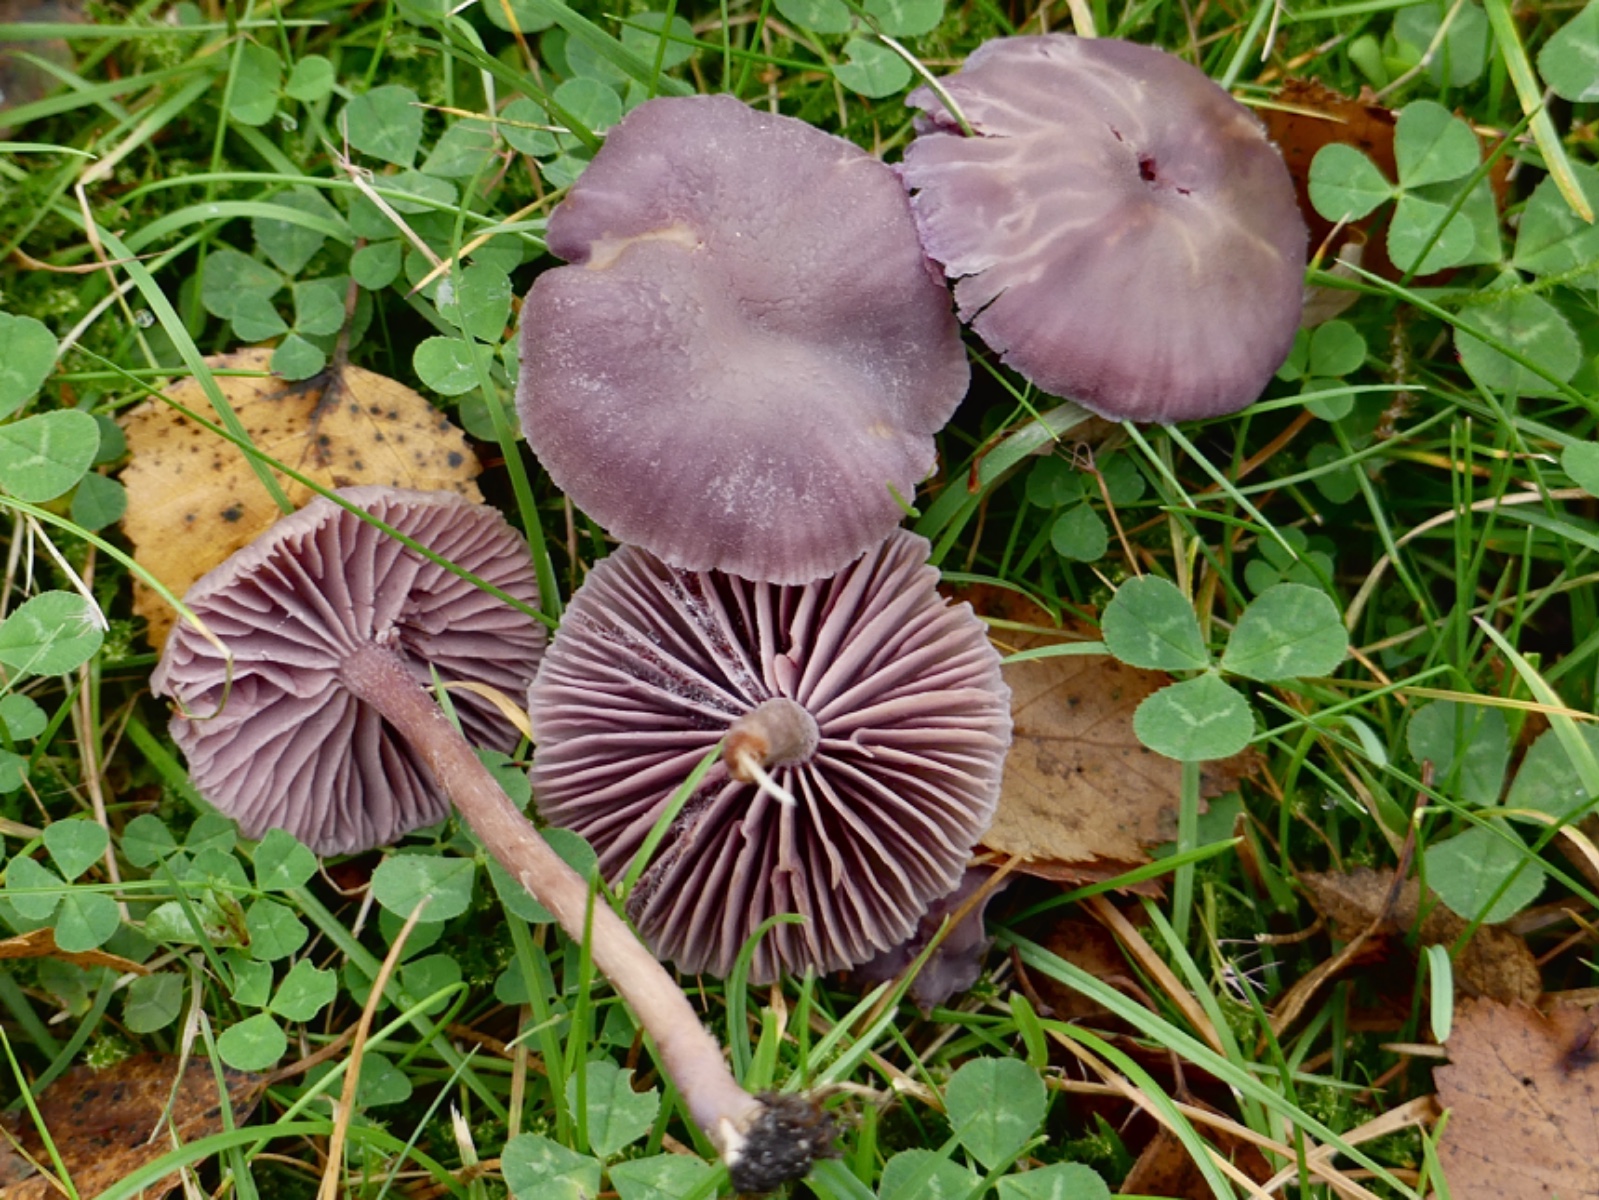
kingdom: Fungi
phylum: Basidiomycota
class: Agaricomycetes
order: Agaricales
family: Hydnangiaceae
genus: Laccaria
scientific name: Laccaria amethystina
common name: violet ametysthat
